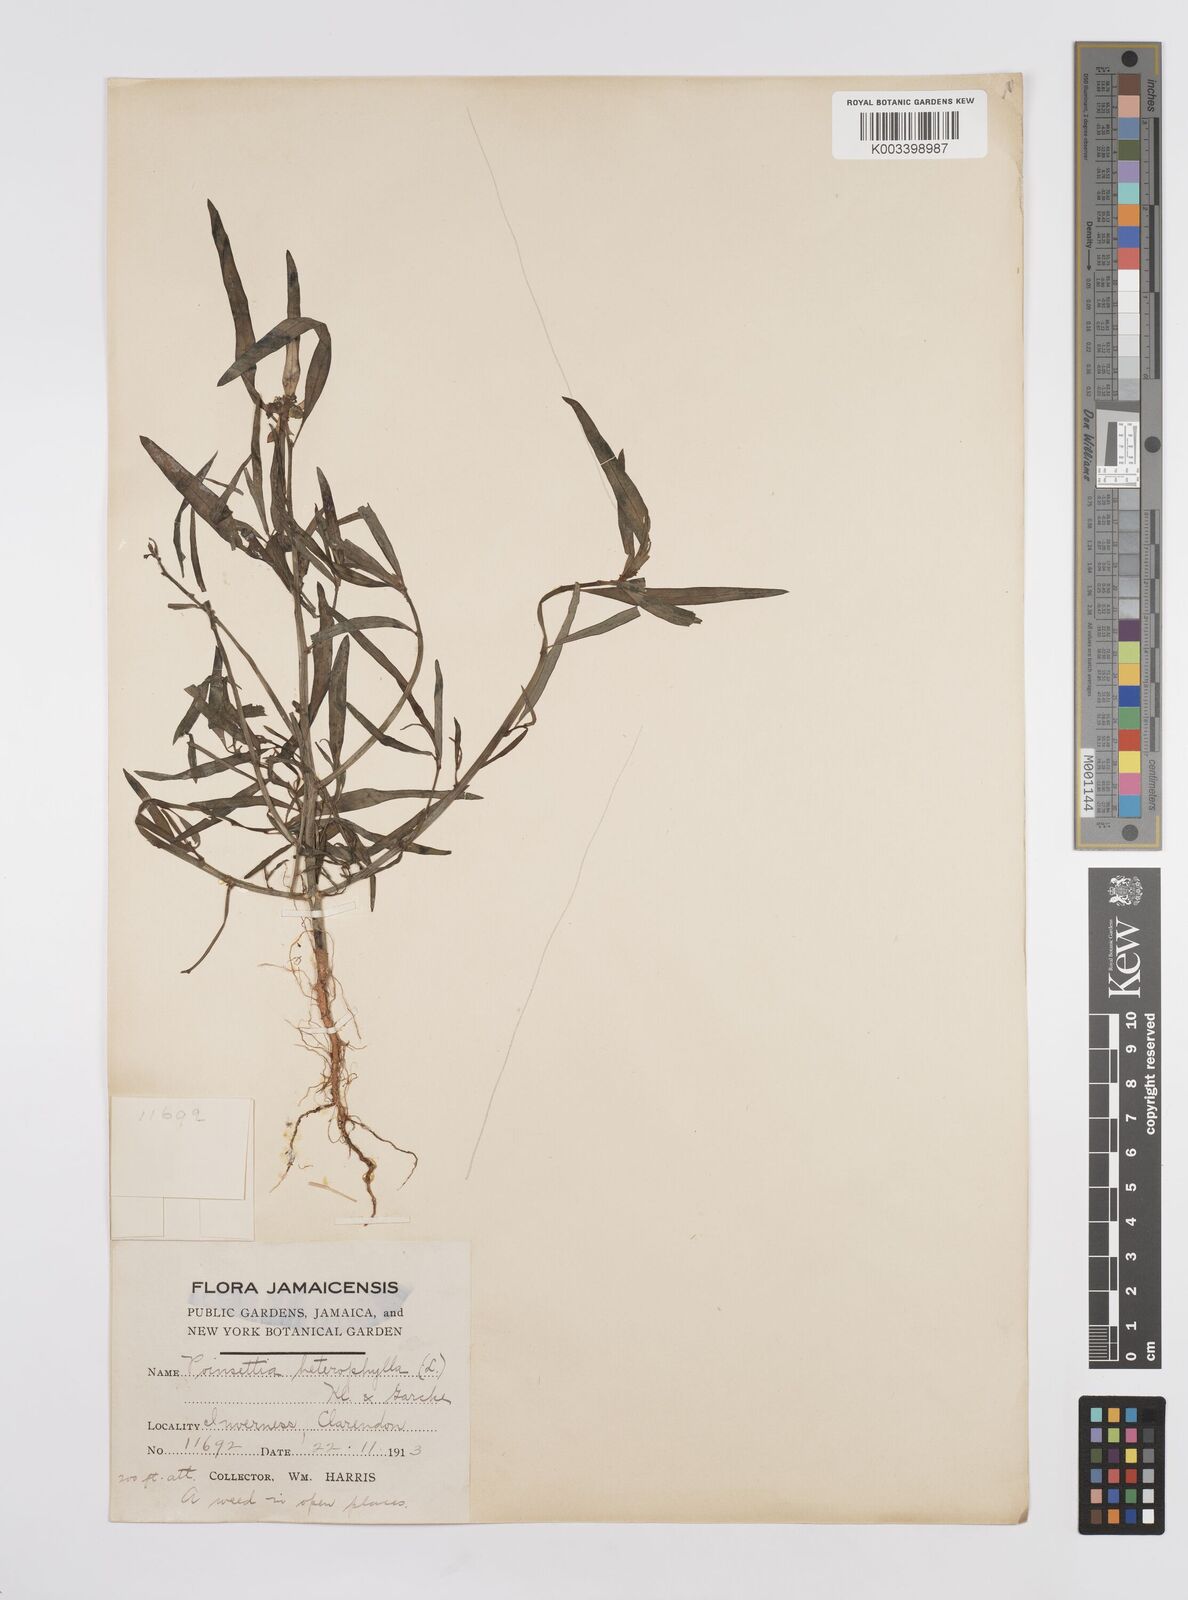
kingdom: Plantae
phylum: Tracheophyta
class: Magnoliopsida
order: Malpighiales
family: Euphorbiaceae
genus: Euphorbia
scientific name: Euphorbia heterophylla
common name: Mexican fireplant
